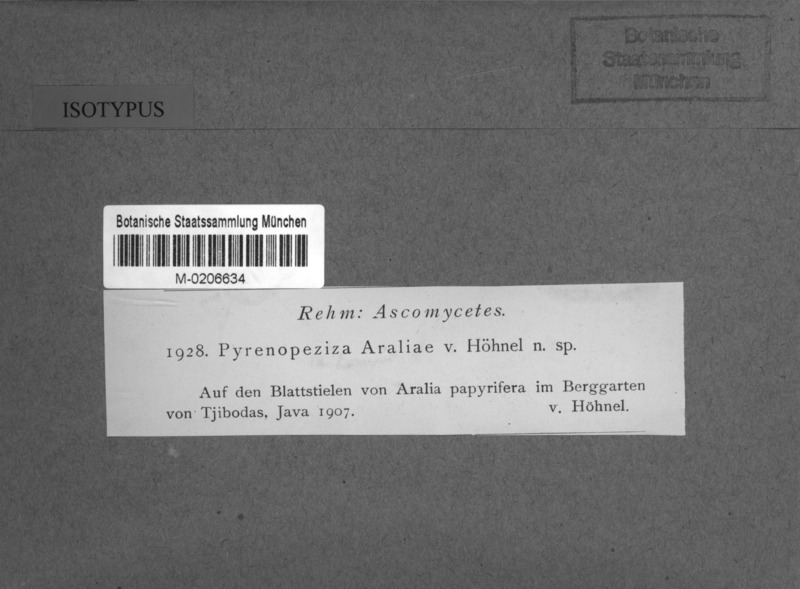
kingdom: Fungi
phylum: Ascomycota
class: Leotiomycetes
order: Helotiales
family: Ploettnerulaceae
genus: Pyrenopeziza
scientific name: Pyrenopeziza araliae
